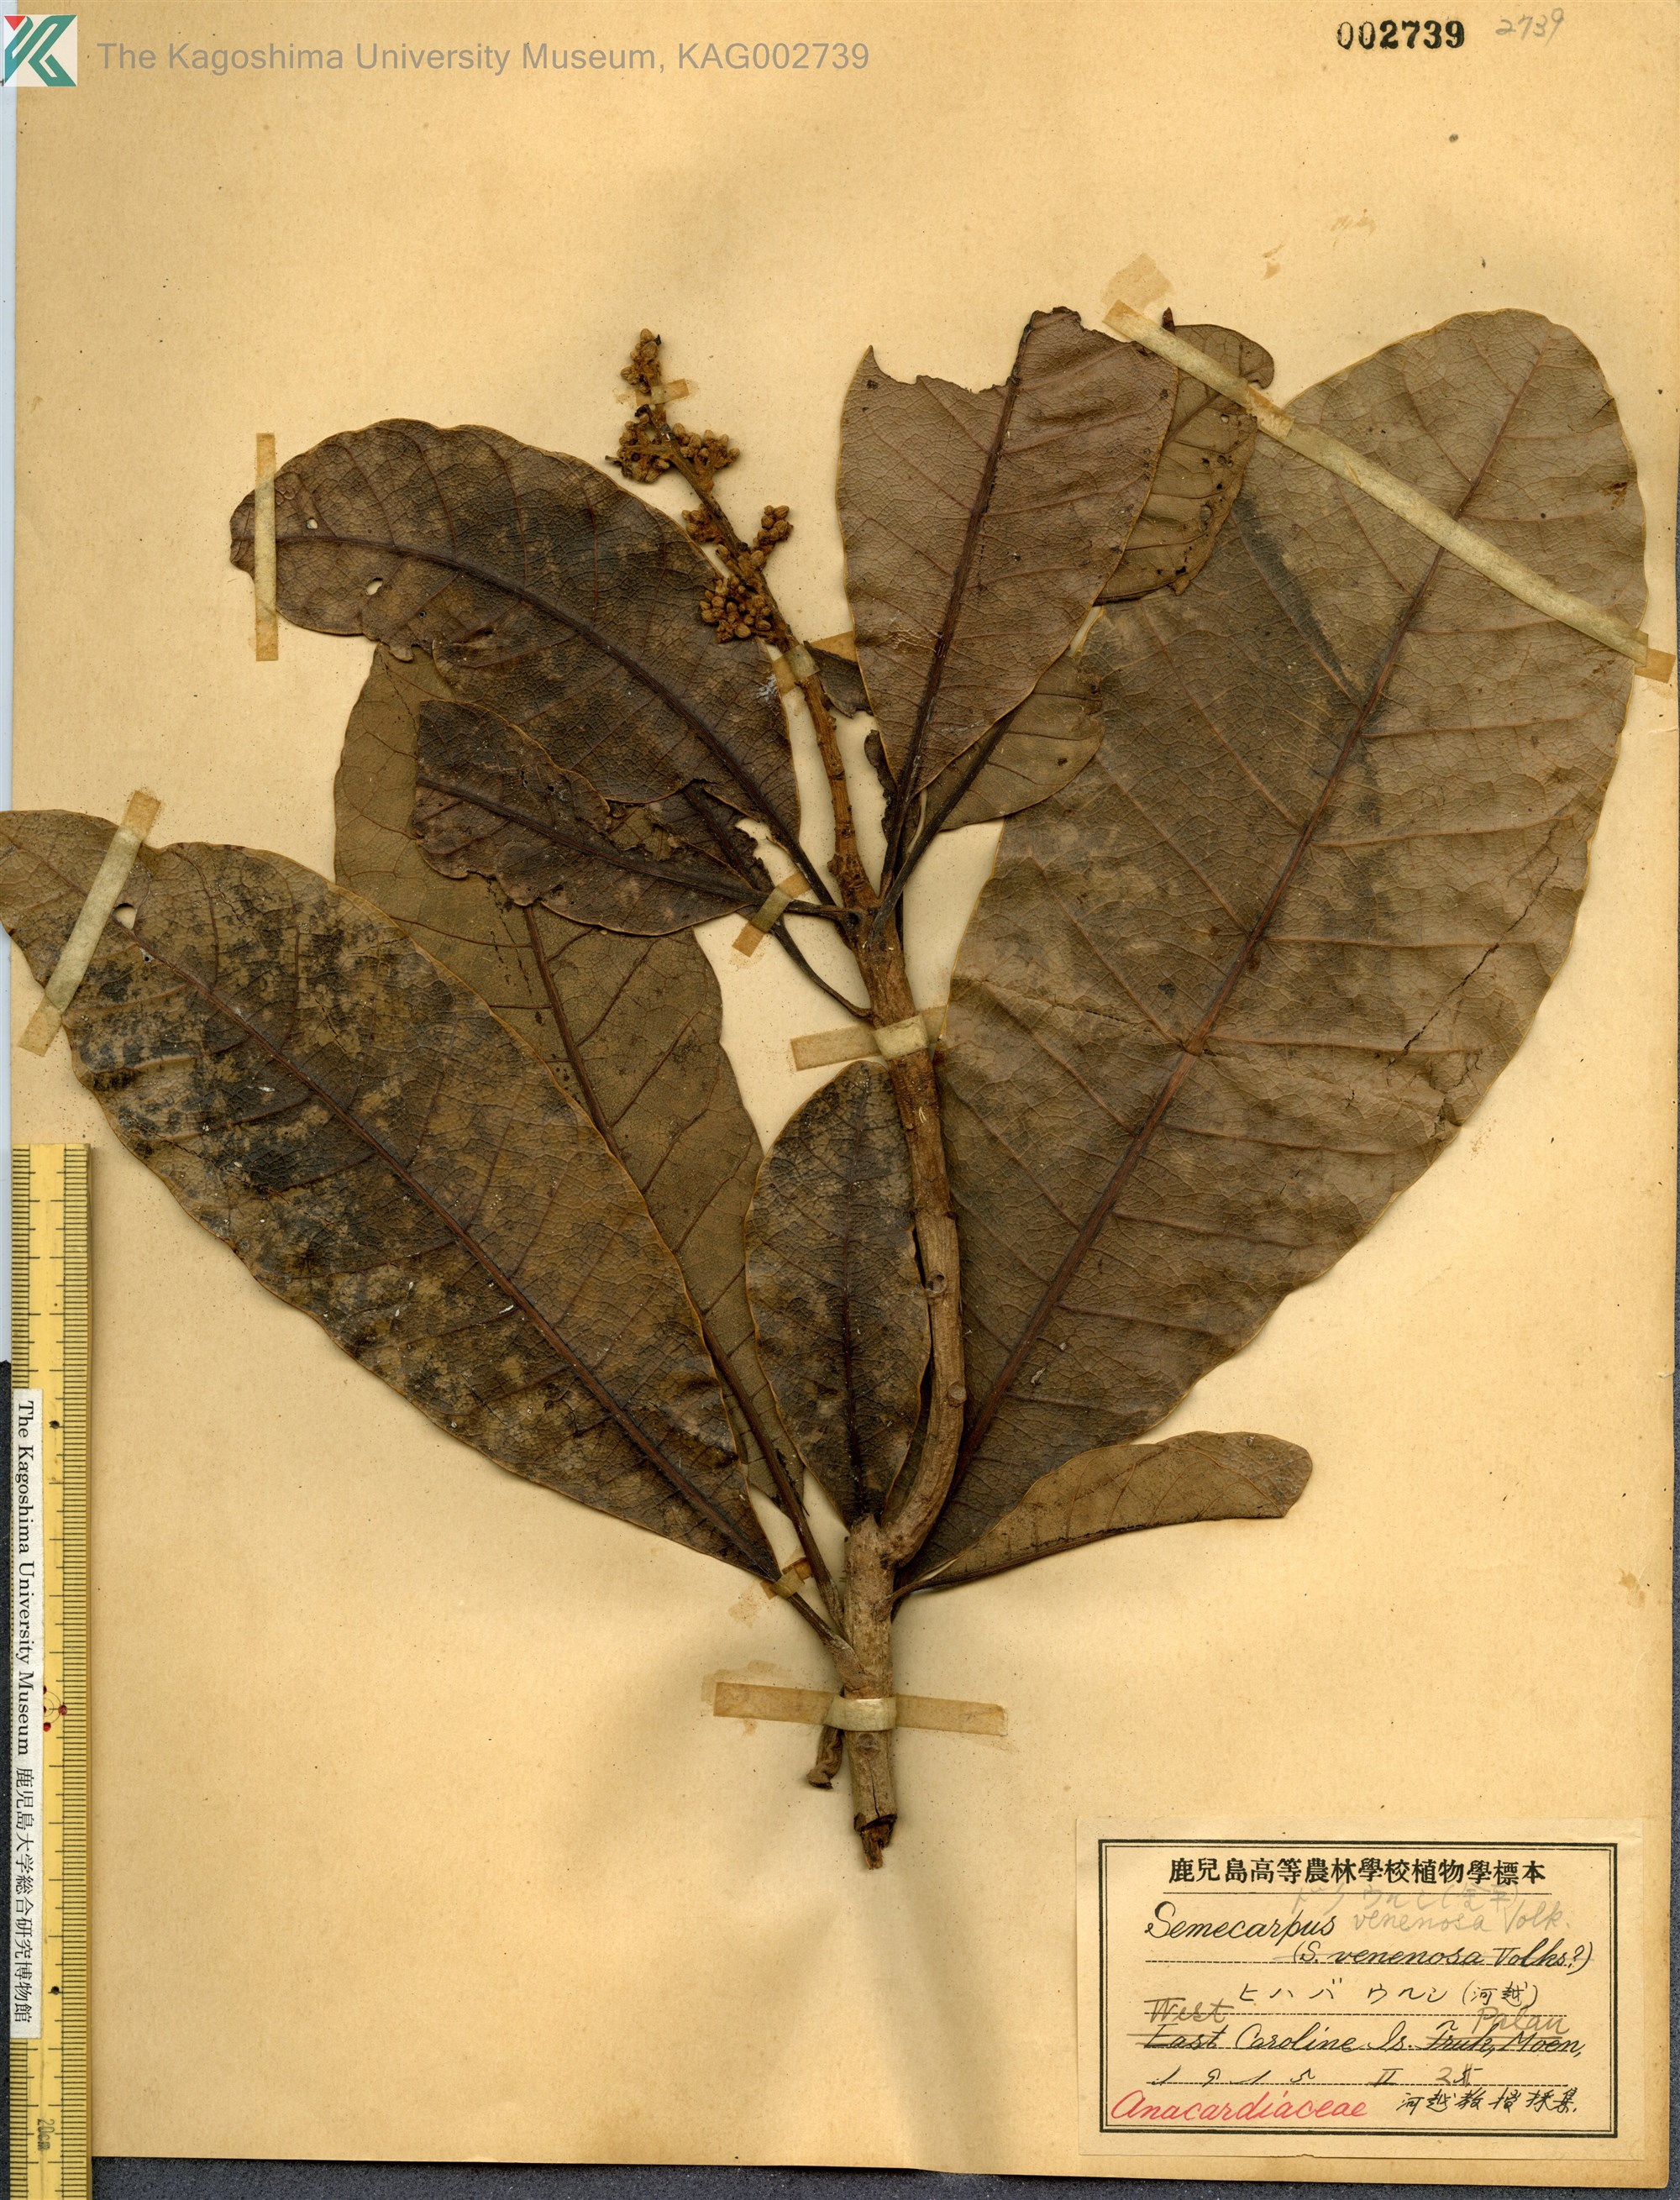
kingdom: Plantae
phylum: Tracheophyta
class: Magnoliopsida
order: Sapindales
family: Anacardiaceae
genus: Semecarpus
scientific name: Semecarpus venenosus
